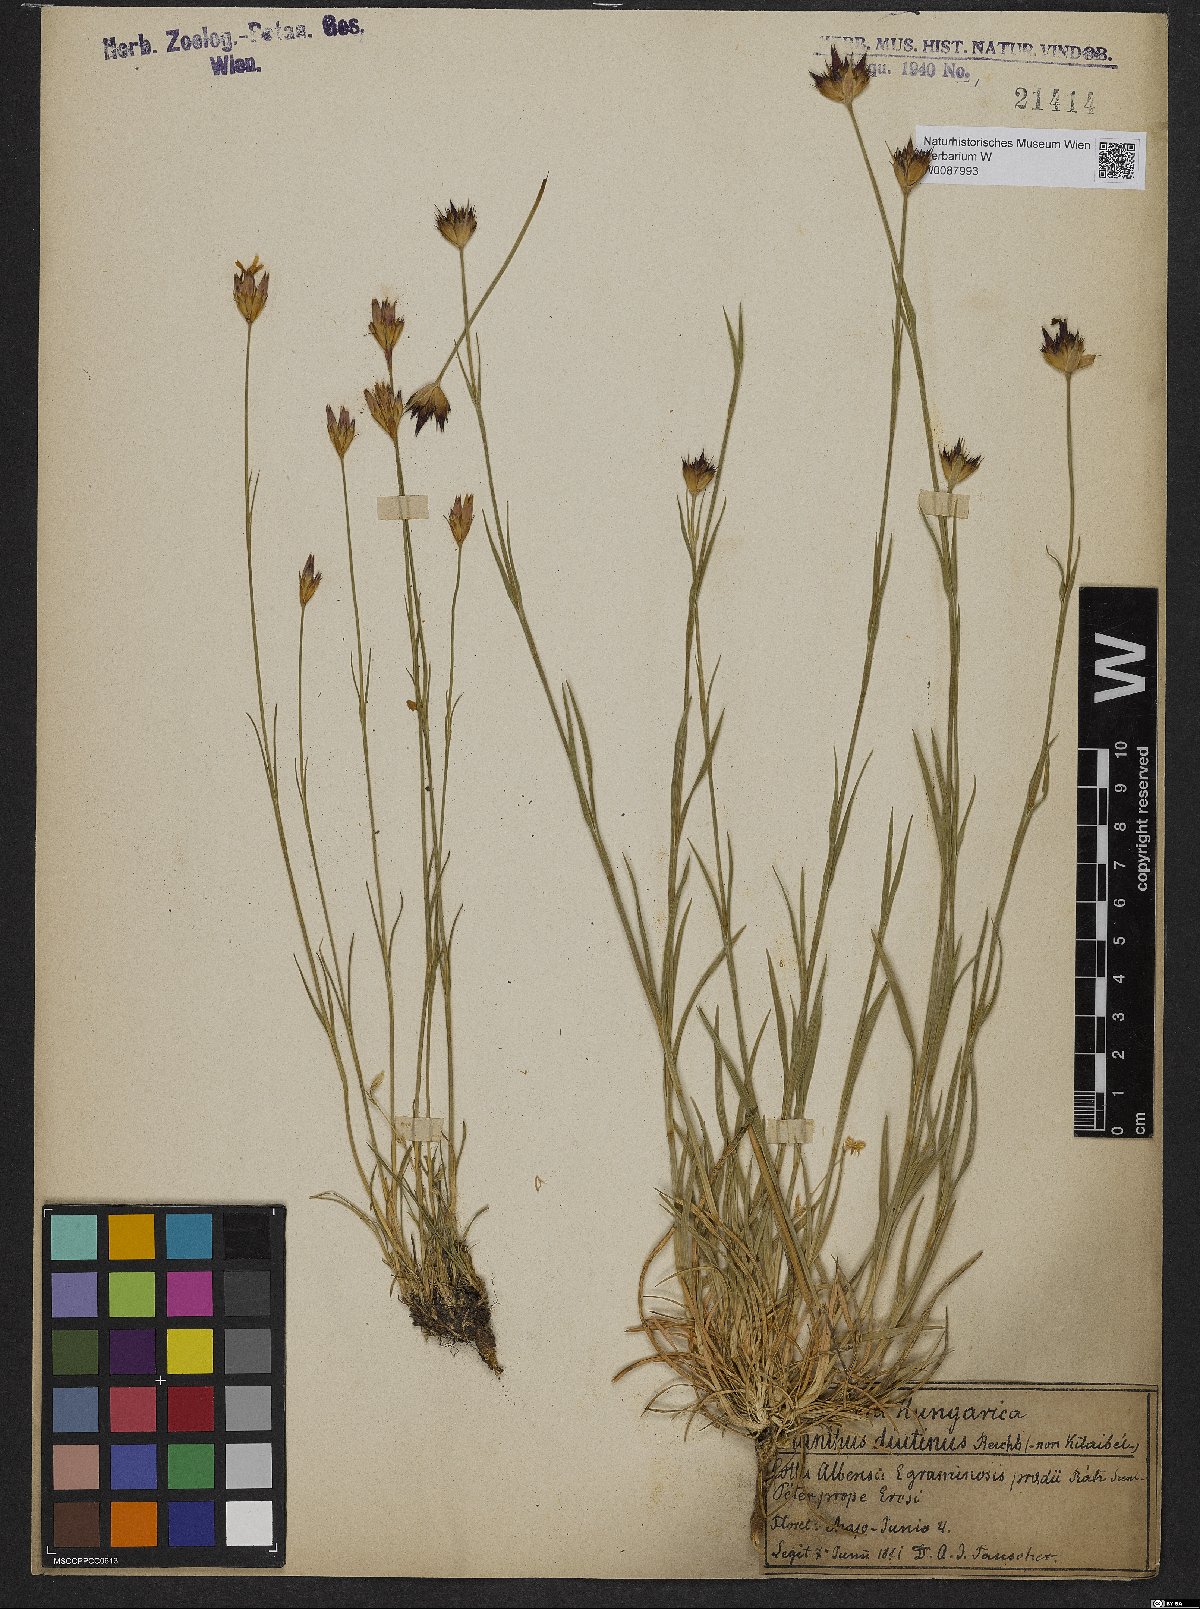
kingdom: Plantae
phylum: Tracheophyta
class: Magnoliopsida
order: Caryophyllales
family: Caryophyllaceae
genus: Dianthus
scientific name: Dianthus pontederae
